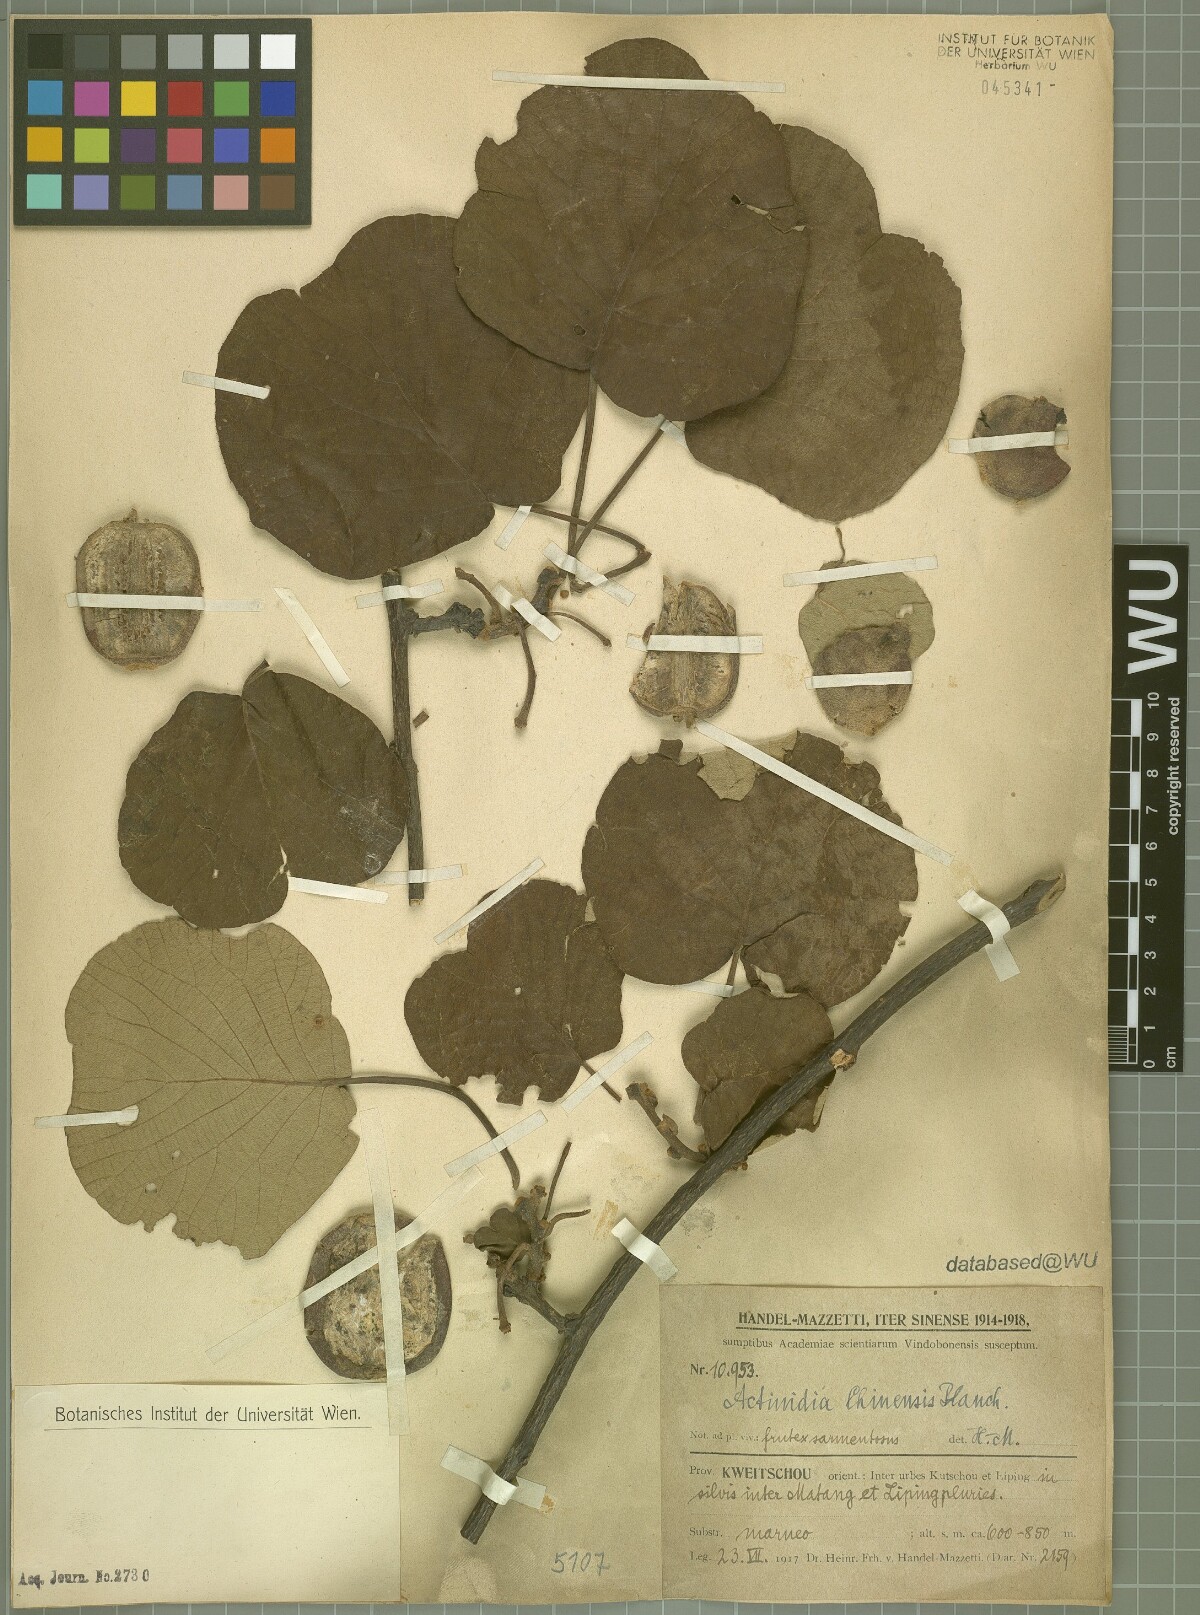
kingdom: Plantae
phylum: Tracheophyta
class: Magnoliopsida
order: Ericales
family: Actinidiaceae
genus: Actinidia
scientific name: Actinidia chinensis
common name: Kiwi
